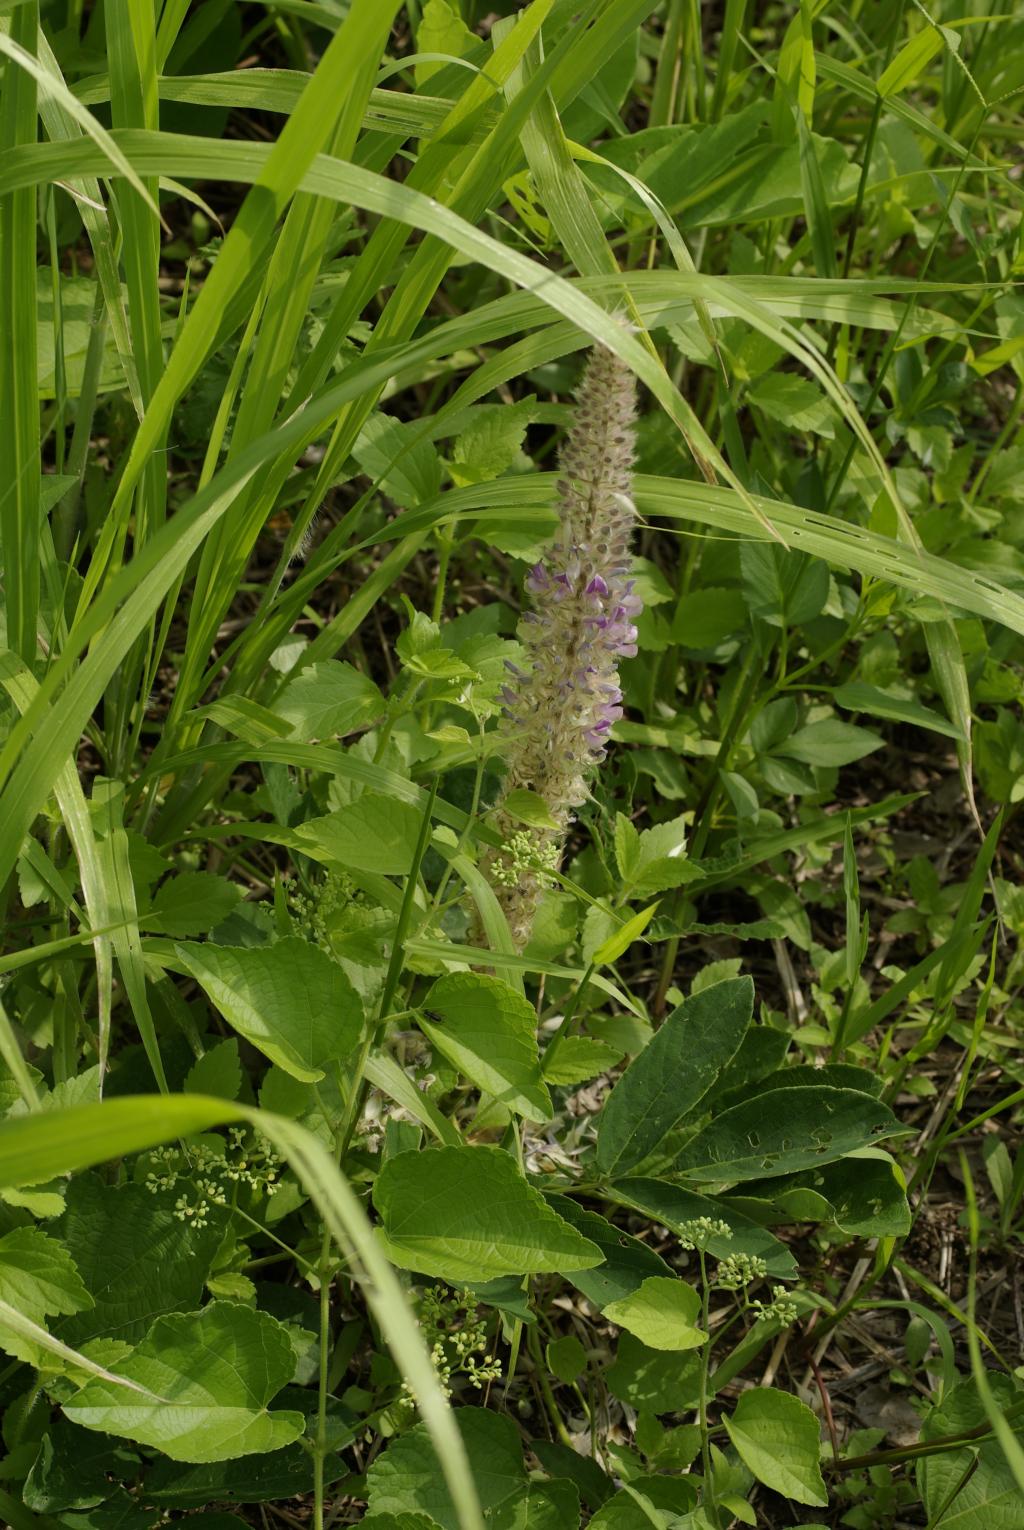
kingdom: Plantae
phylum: Tracheophyta
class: Magnoliopsida
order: Fabales
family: Fabaceae
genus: Uraria
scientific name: Uraria crinita
